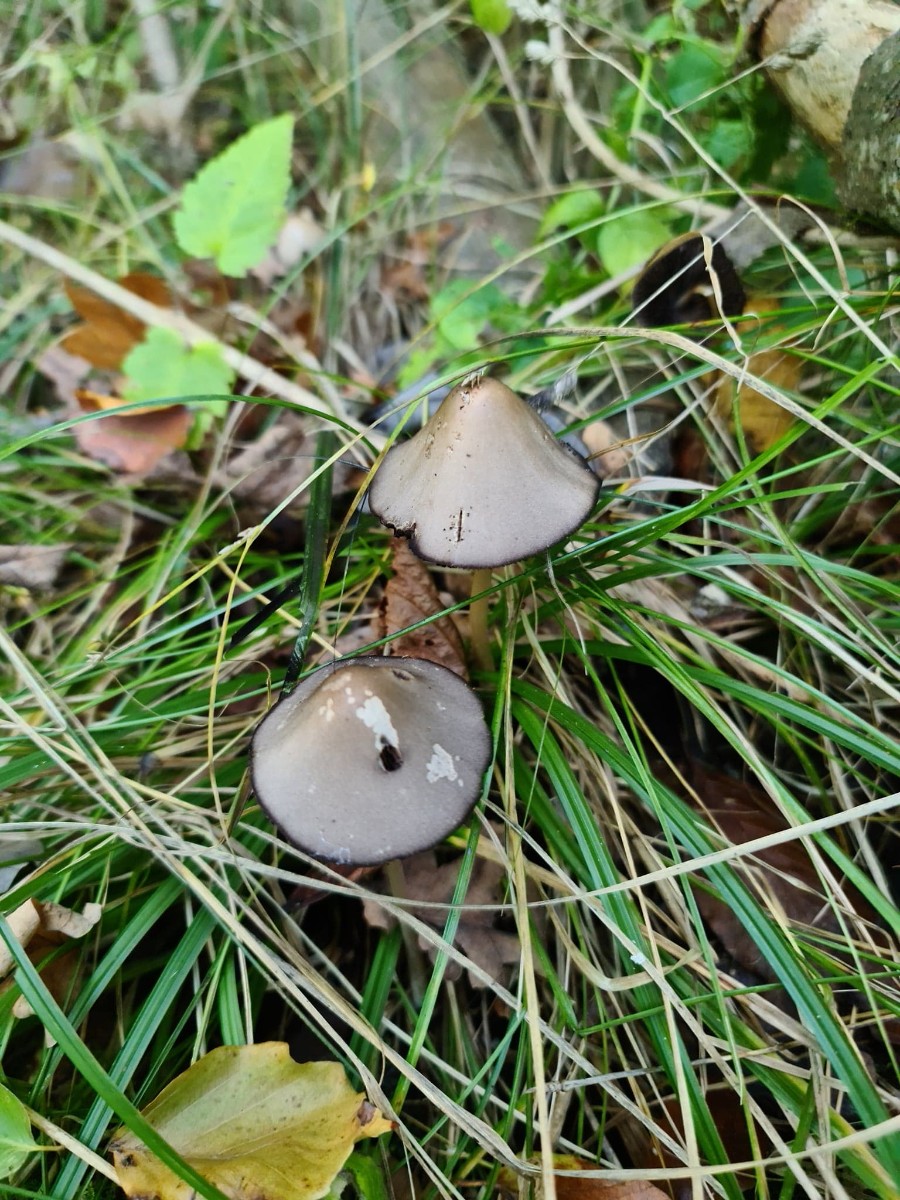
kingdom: Fungi
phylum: Basidiomycota
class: Agaricomycetes
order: Agaricales
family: Psathyrellaceae
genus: Parasola
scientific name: Parasola conopilea
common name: kegle-hjulhat
